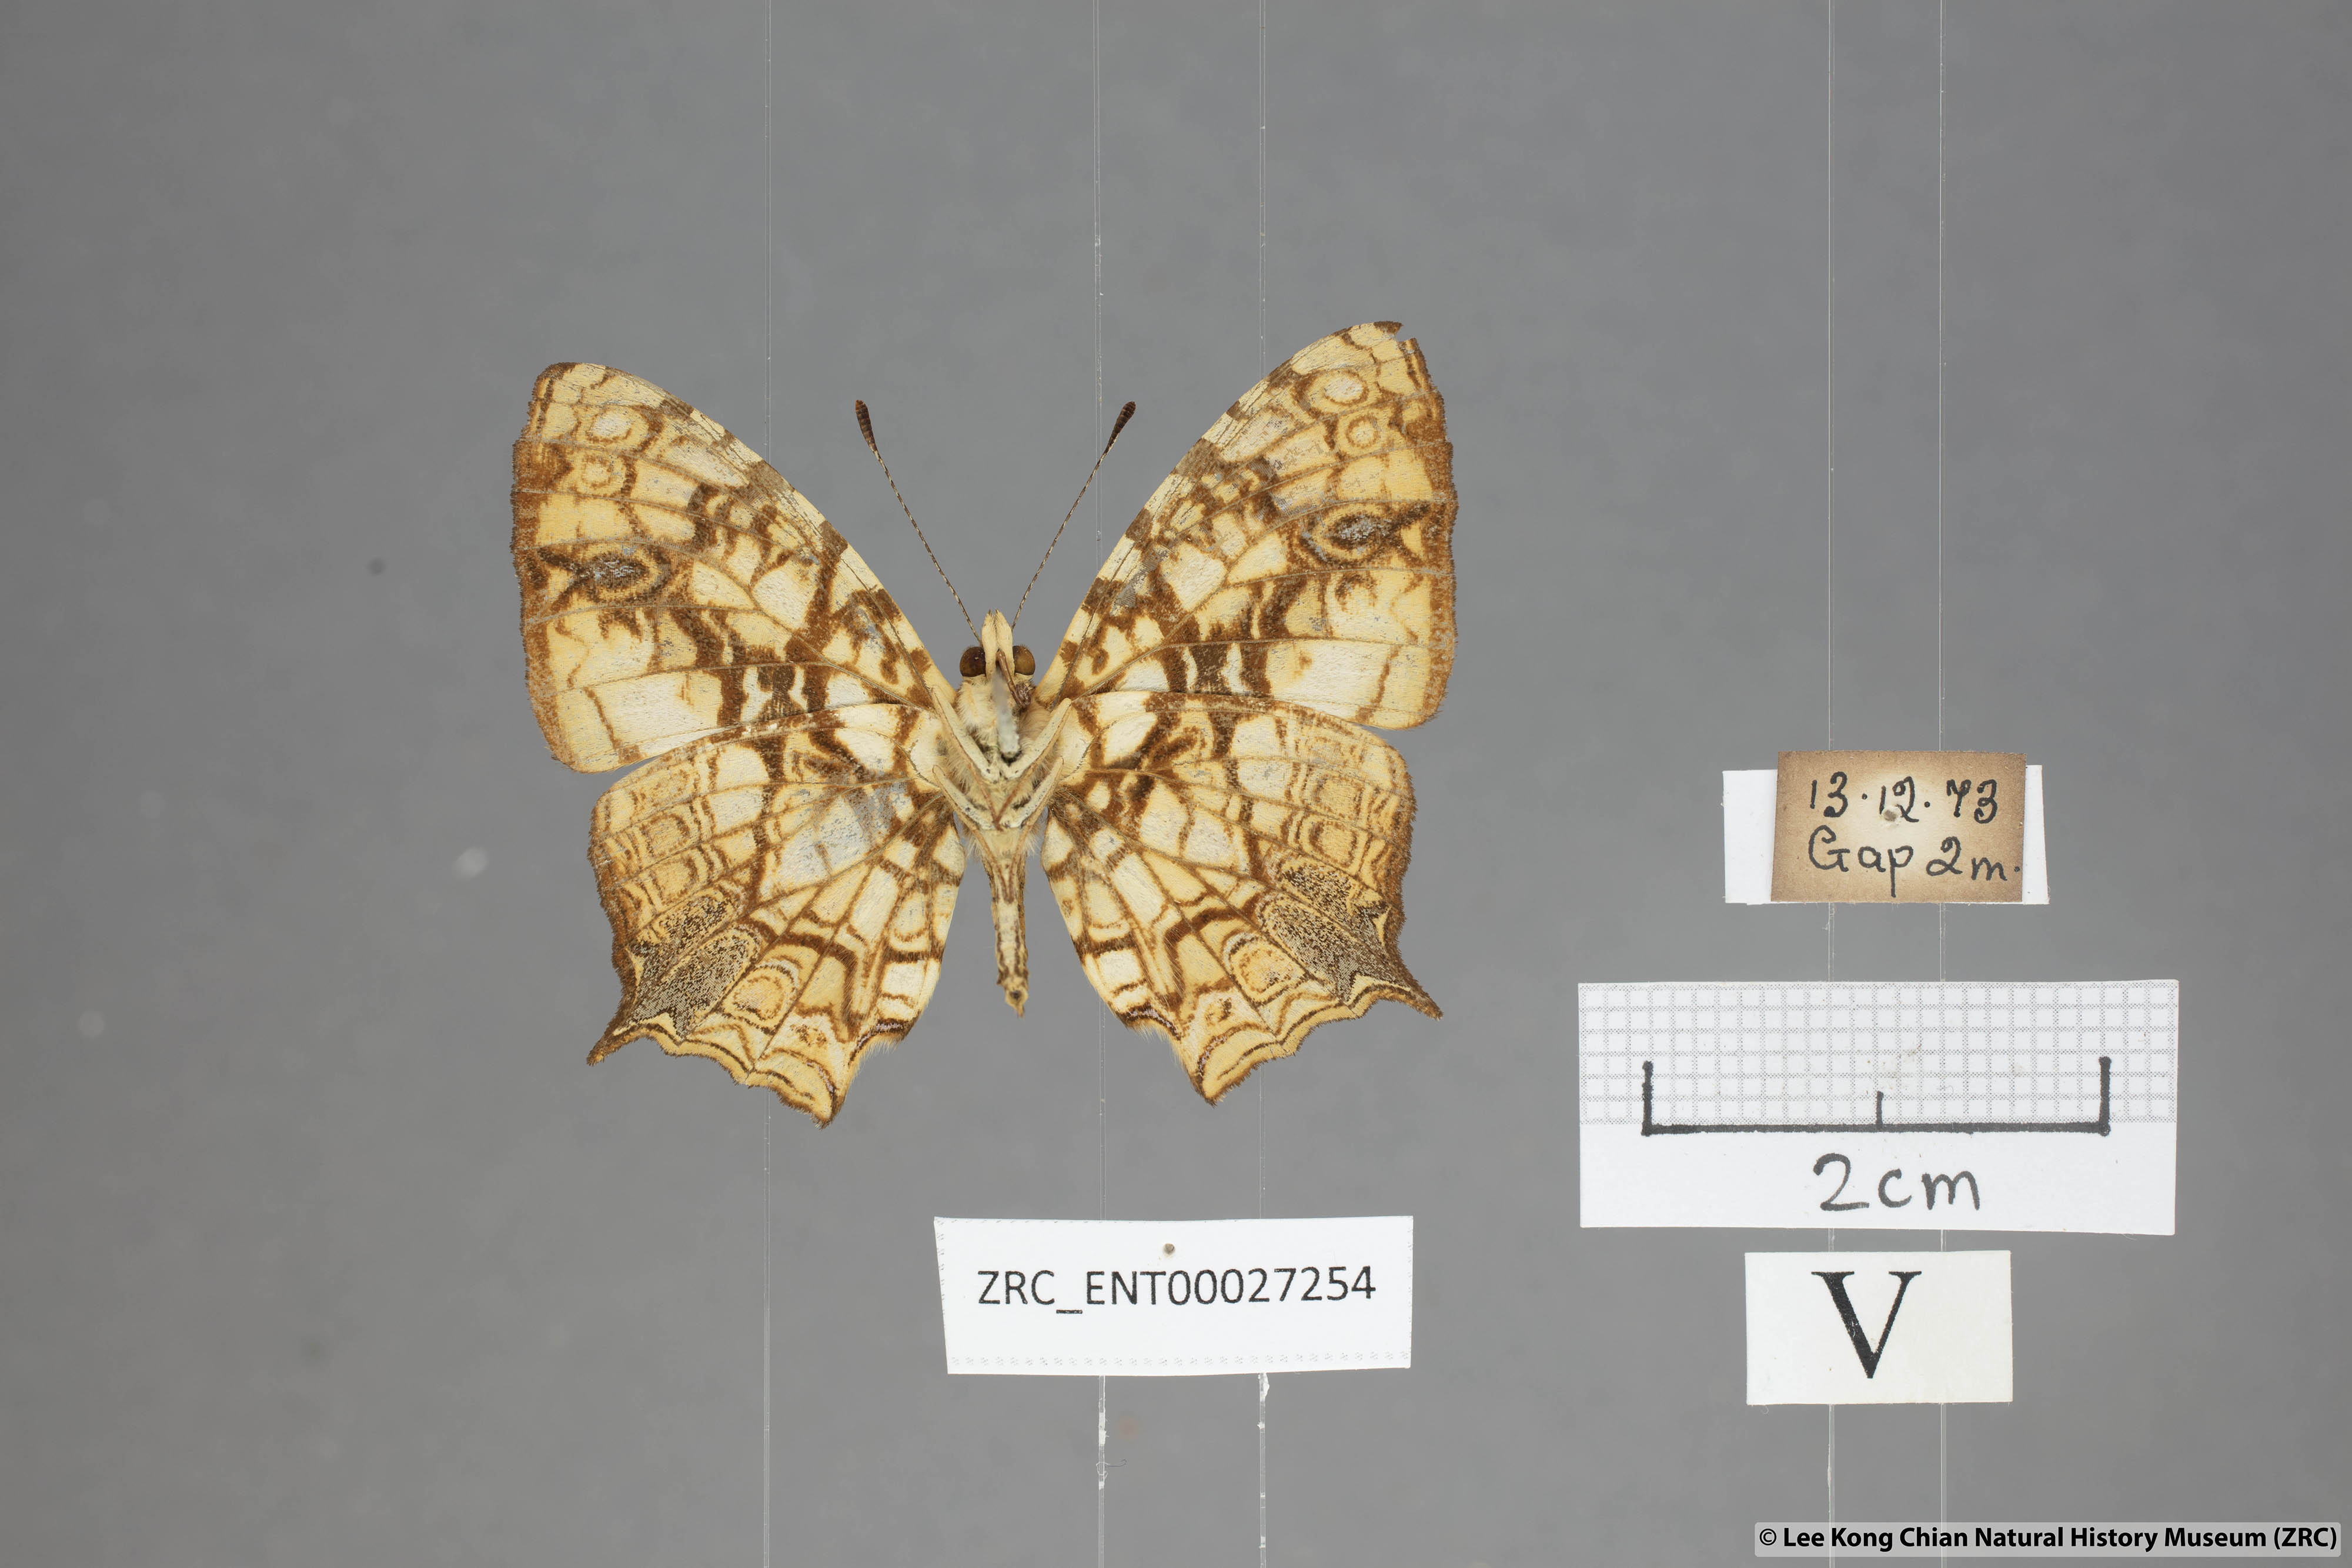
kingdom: Animalia
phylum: Arthropoda
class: Insecta
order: Lepidoptera
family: Nymphalidae
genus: Symbrenthia
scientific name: Symbrenthia hypatia
